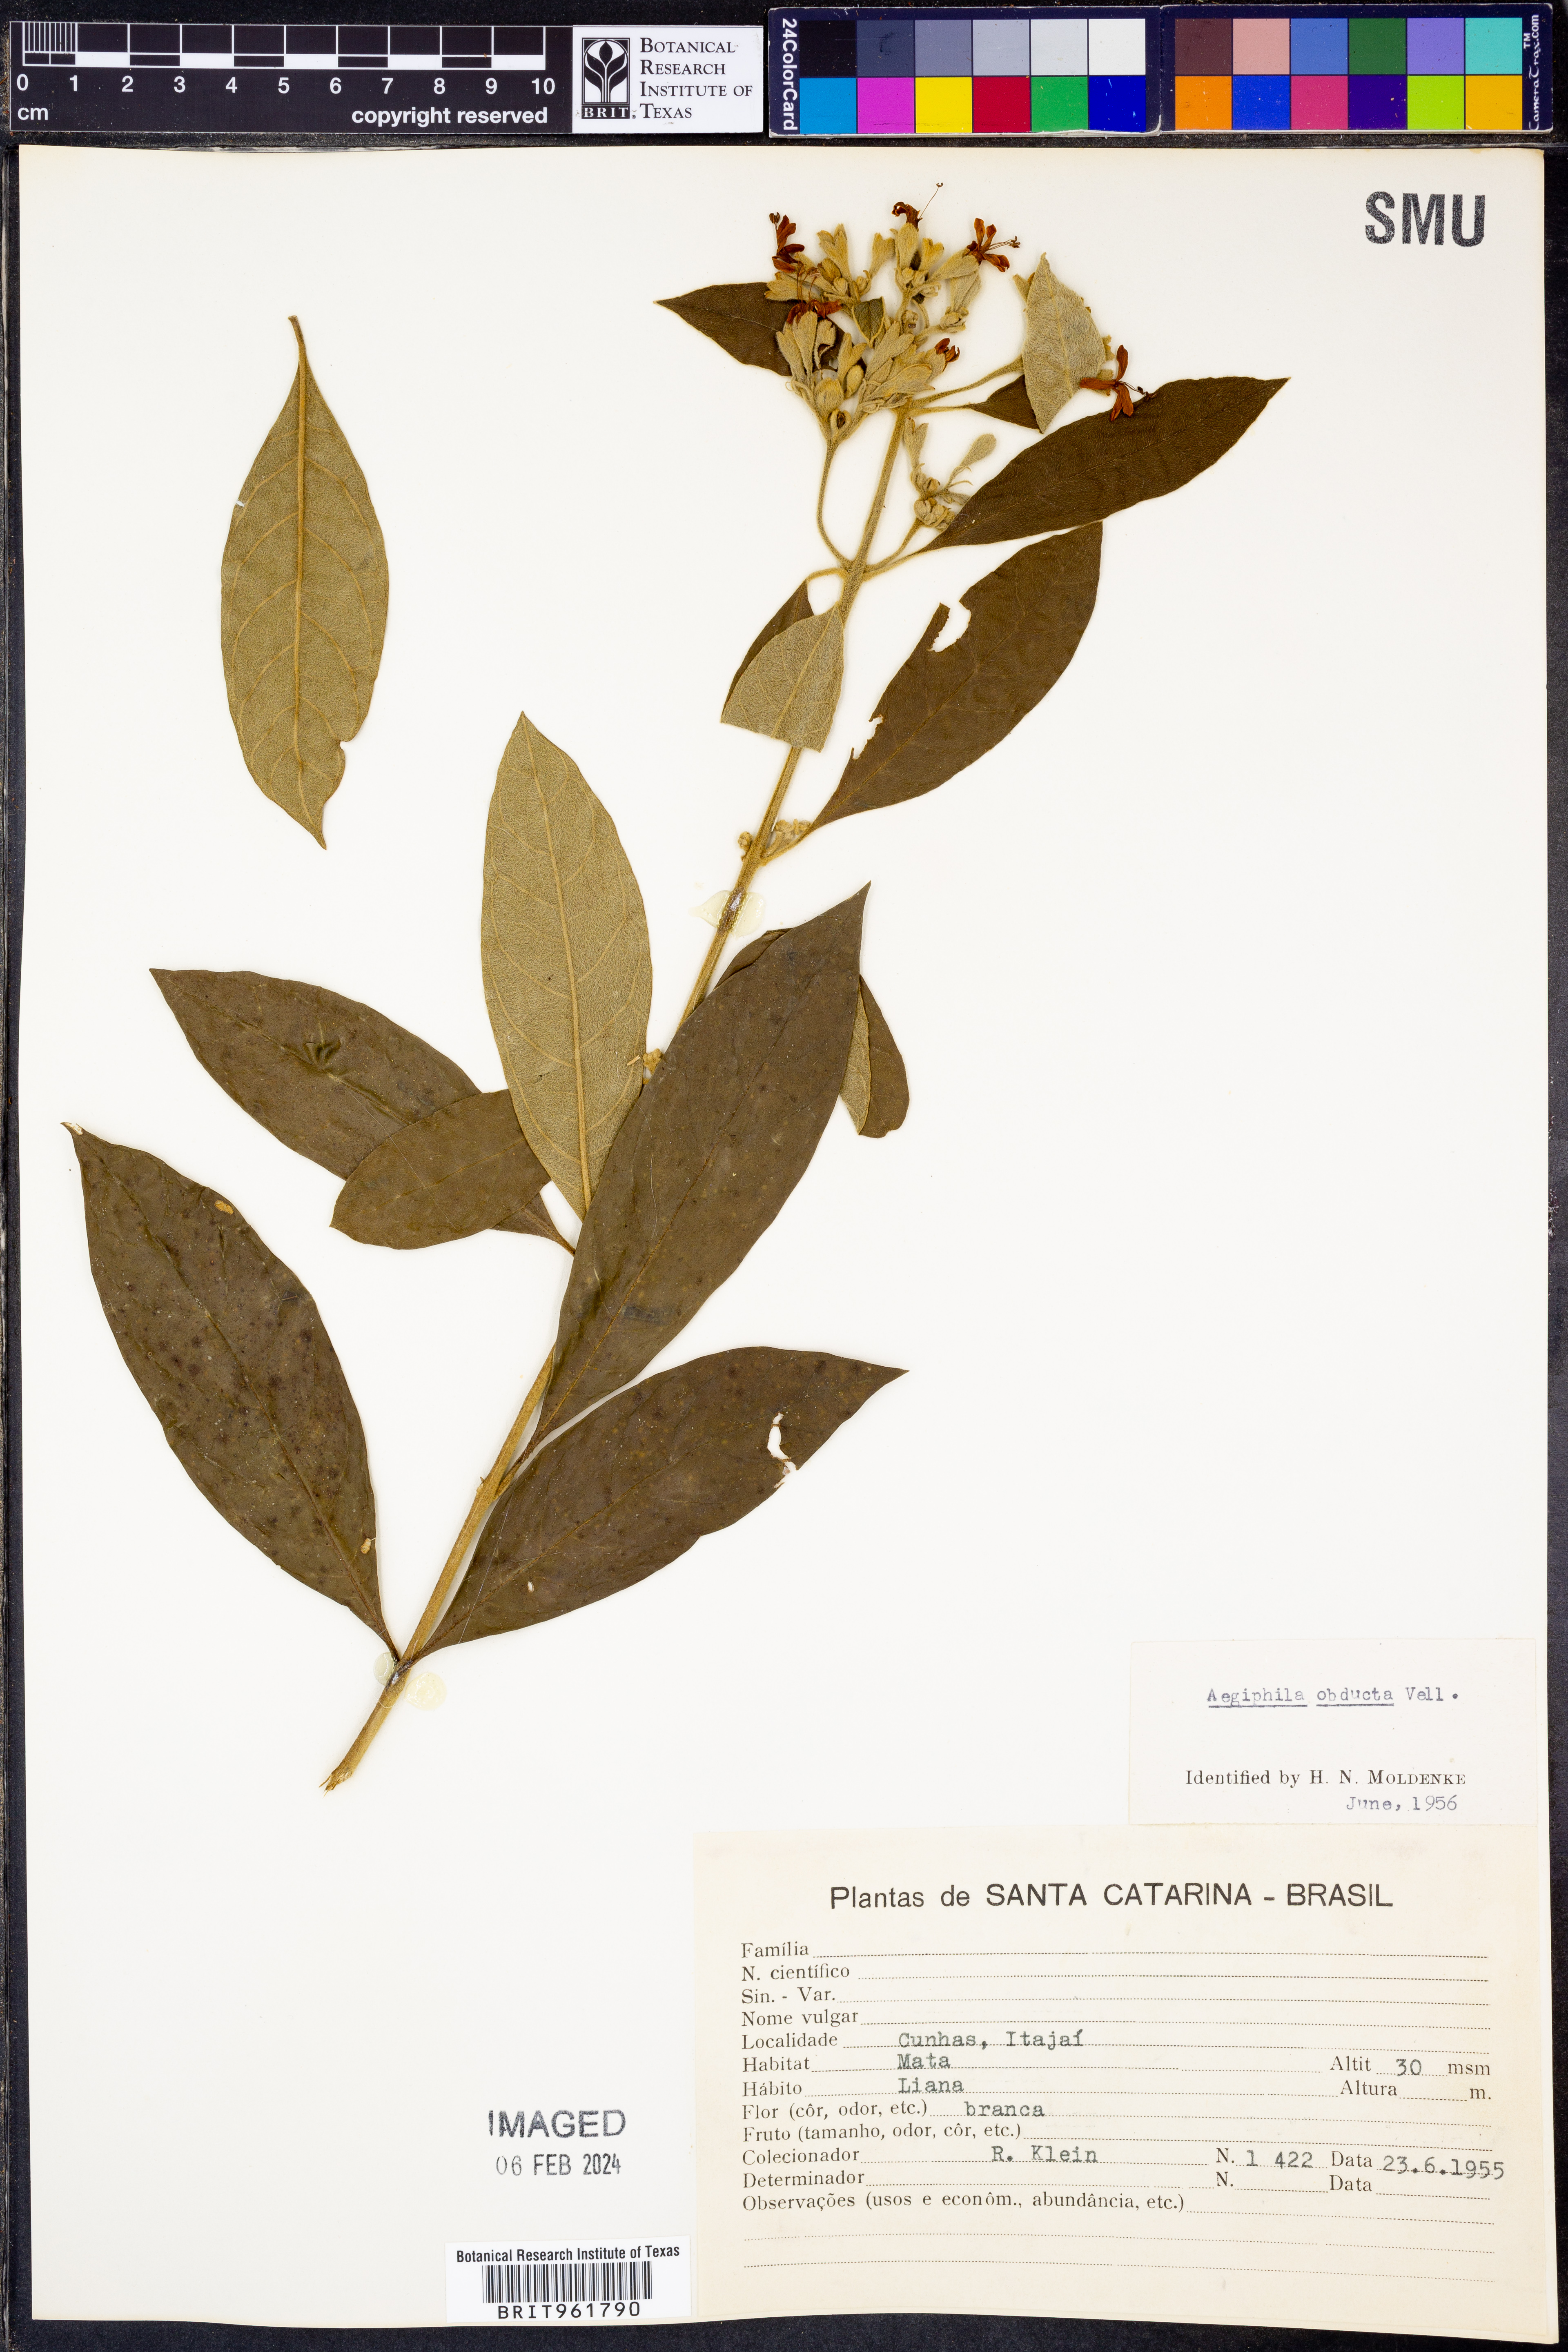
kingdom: Plantae
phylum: Tracheophyta
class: Magnoliopsida
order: Lamiales
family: Lamiaceae
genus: Aegiphila
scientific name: Aegiphila
